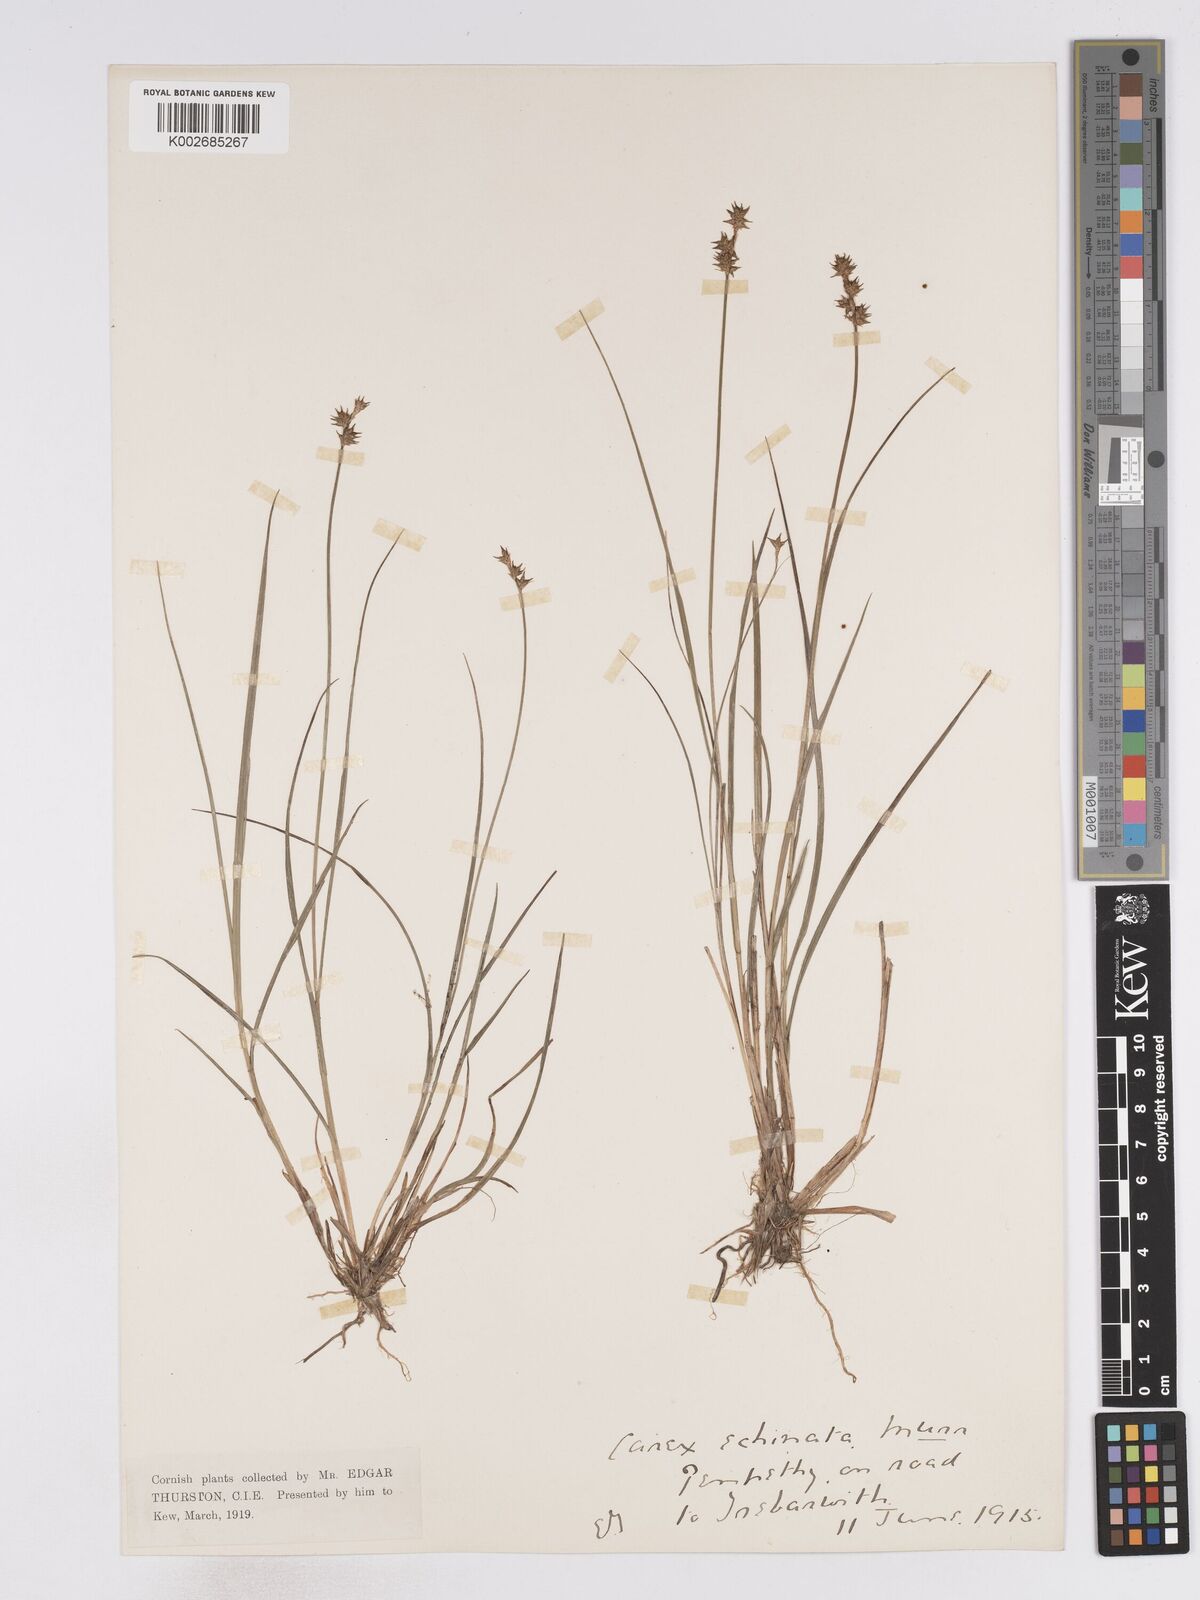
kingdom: Plantae
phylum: Tracheophyta
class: Liliopsida
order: Poales
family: Cyperaceae
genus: Carex
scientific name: Carex echinata
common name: Star sedge
